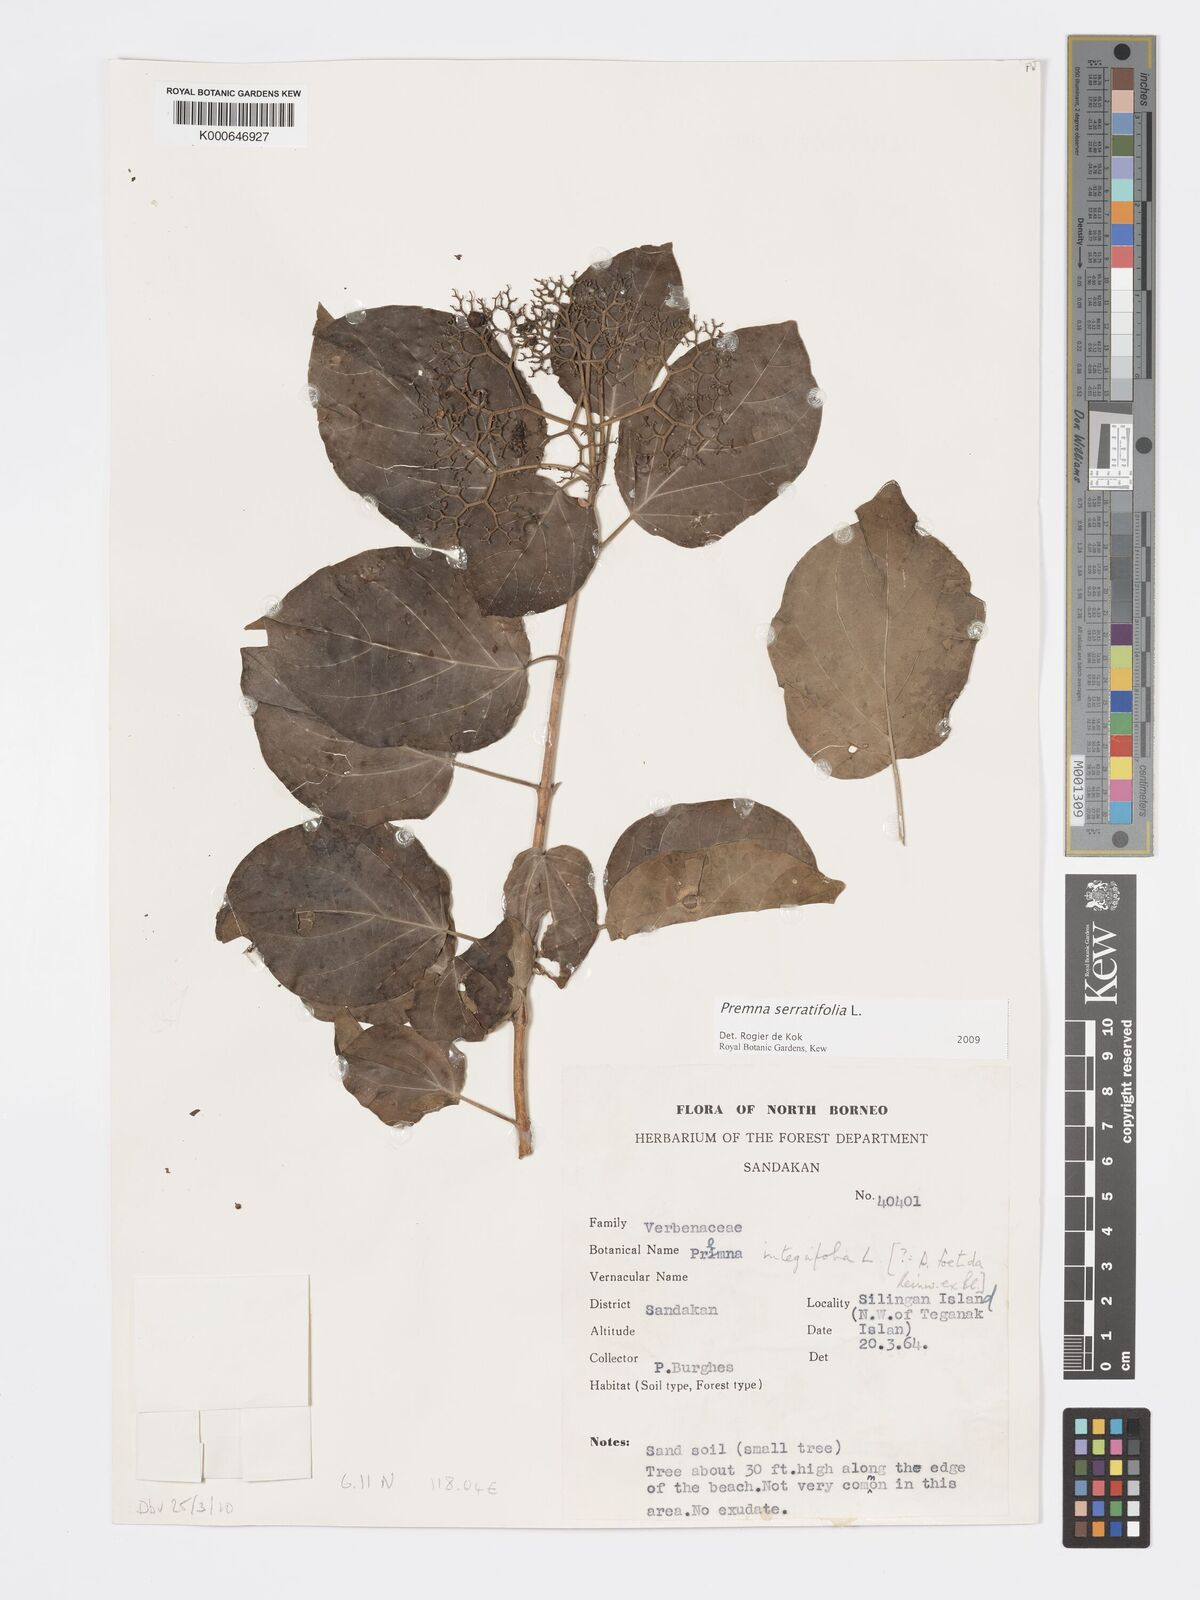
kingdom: Plantae
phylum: Tracheophyta
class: Magnoliopsida
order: Lamiales
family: Lamiaceae
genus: Premna
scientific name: Premna serratifolia
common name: Bastard guelder
